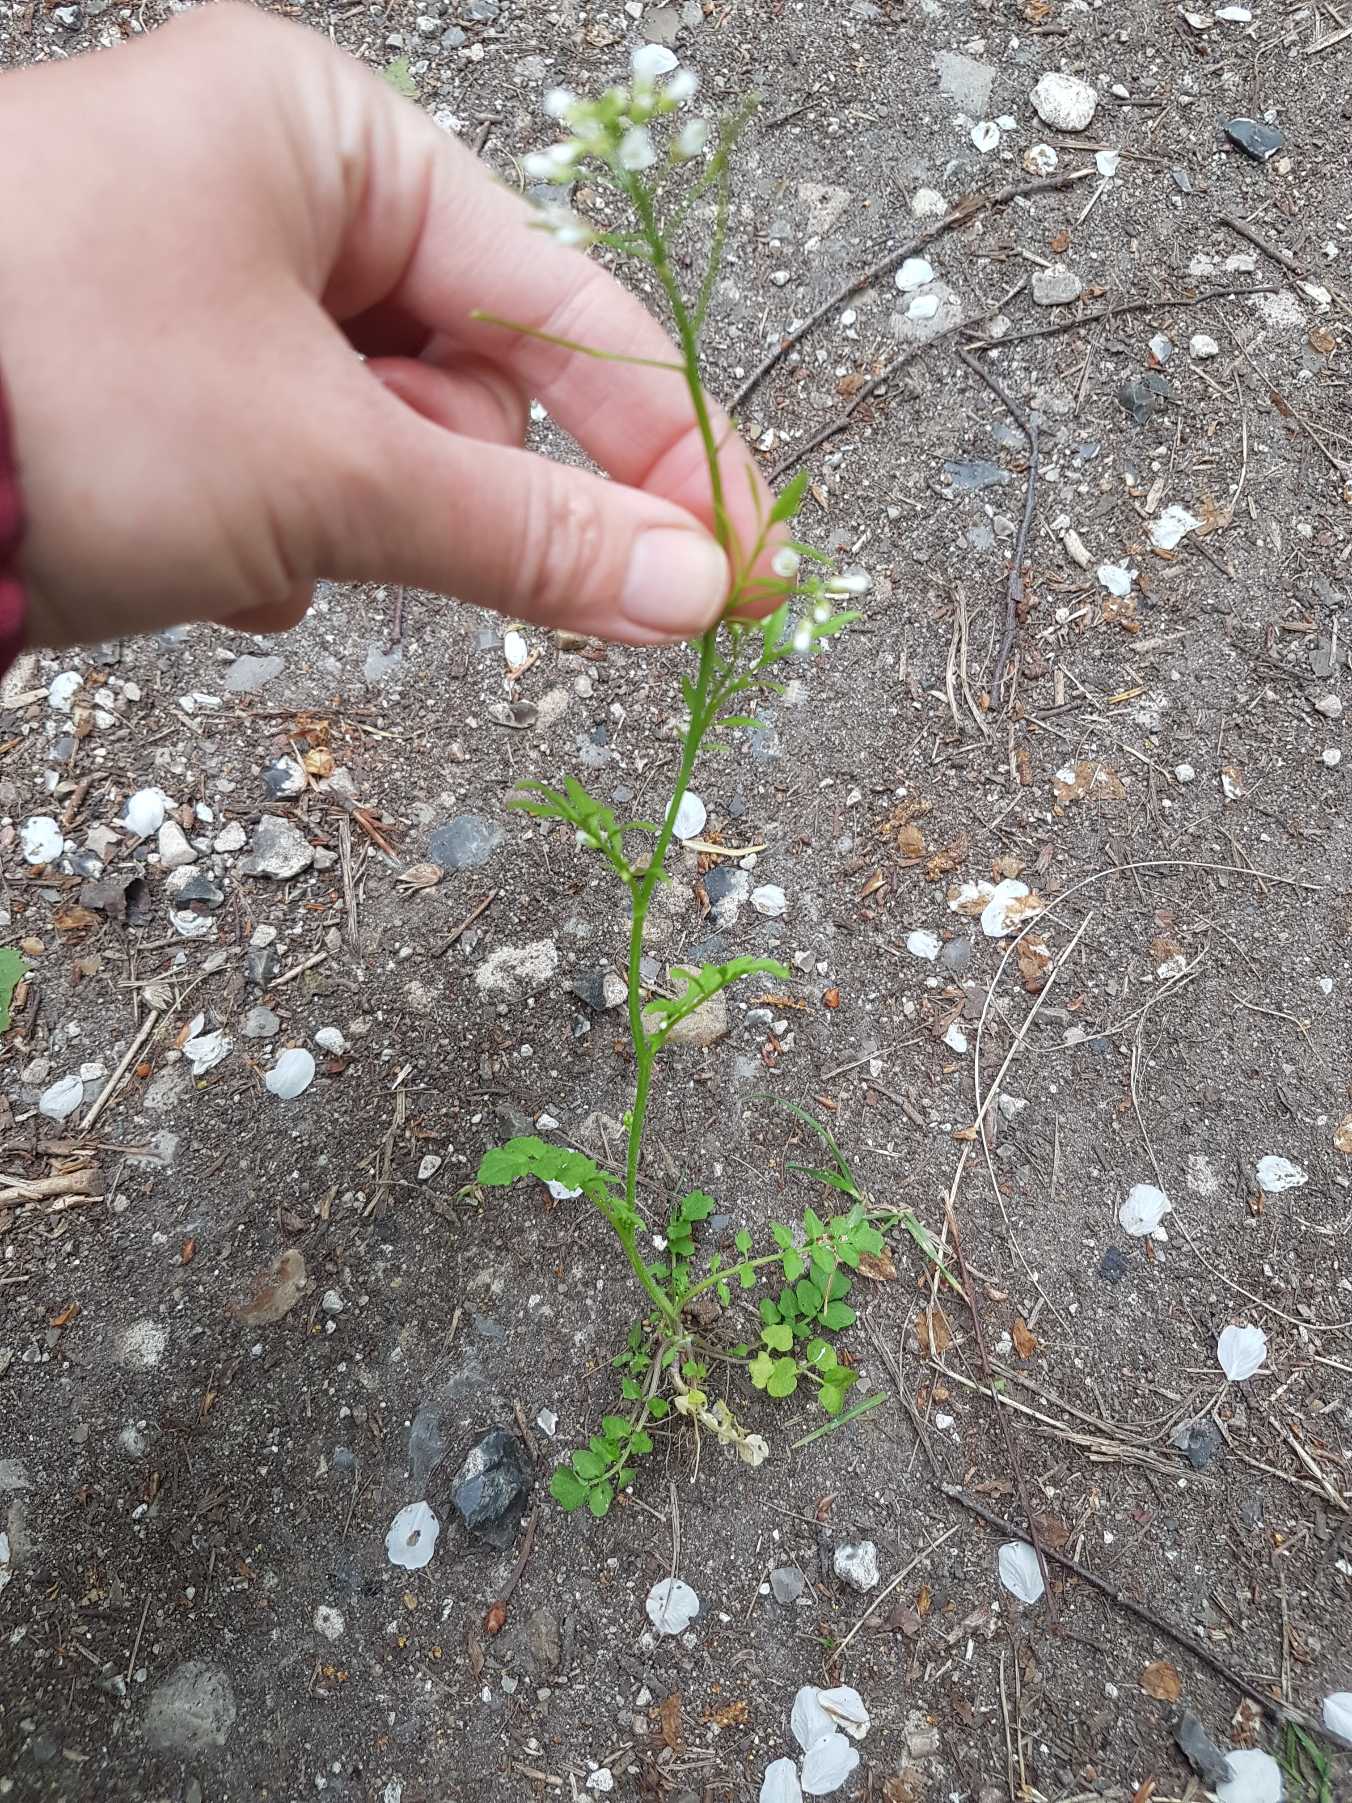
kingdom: Plantae
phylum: Tracheophyta
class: Magnoliopsida
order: Brassicales
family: Brassicaceae
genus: Cardamine
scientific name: Cardamine flexuosa
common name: Skov-springklap
